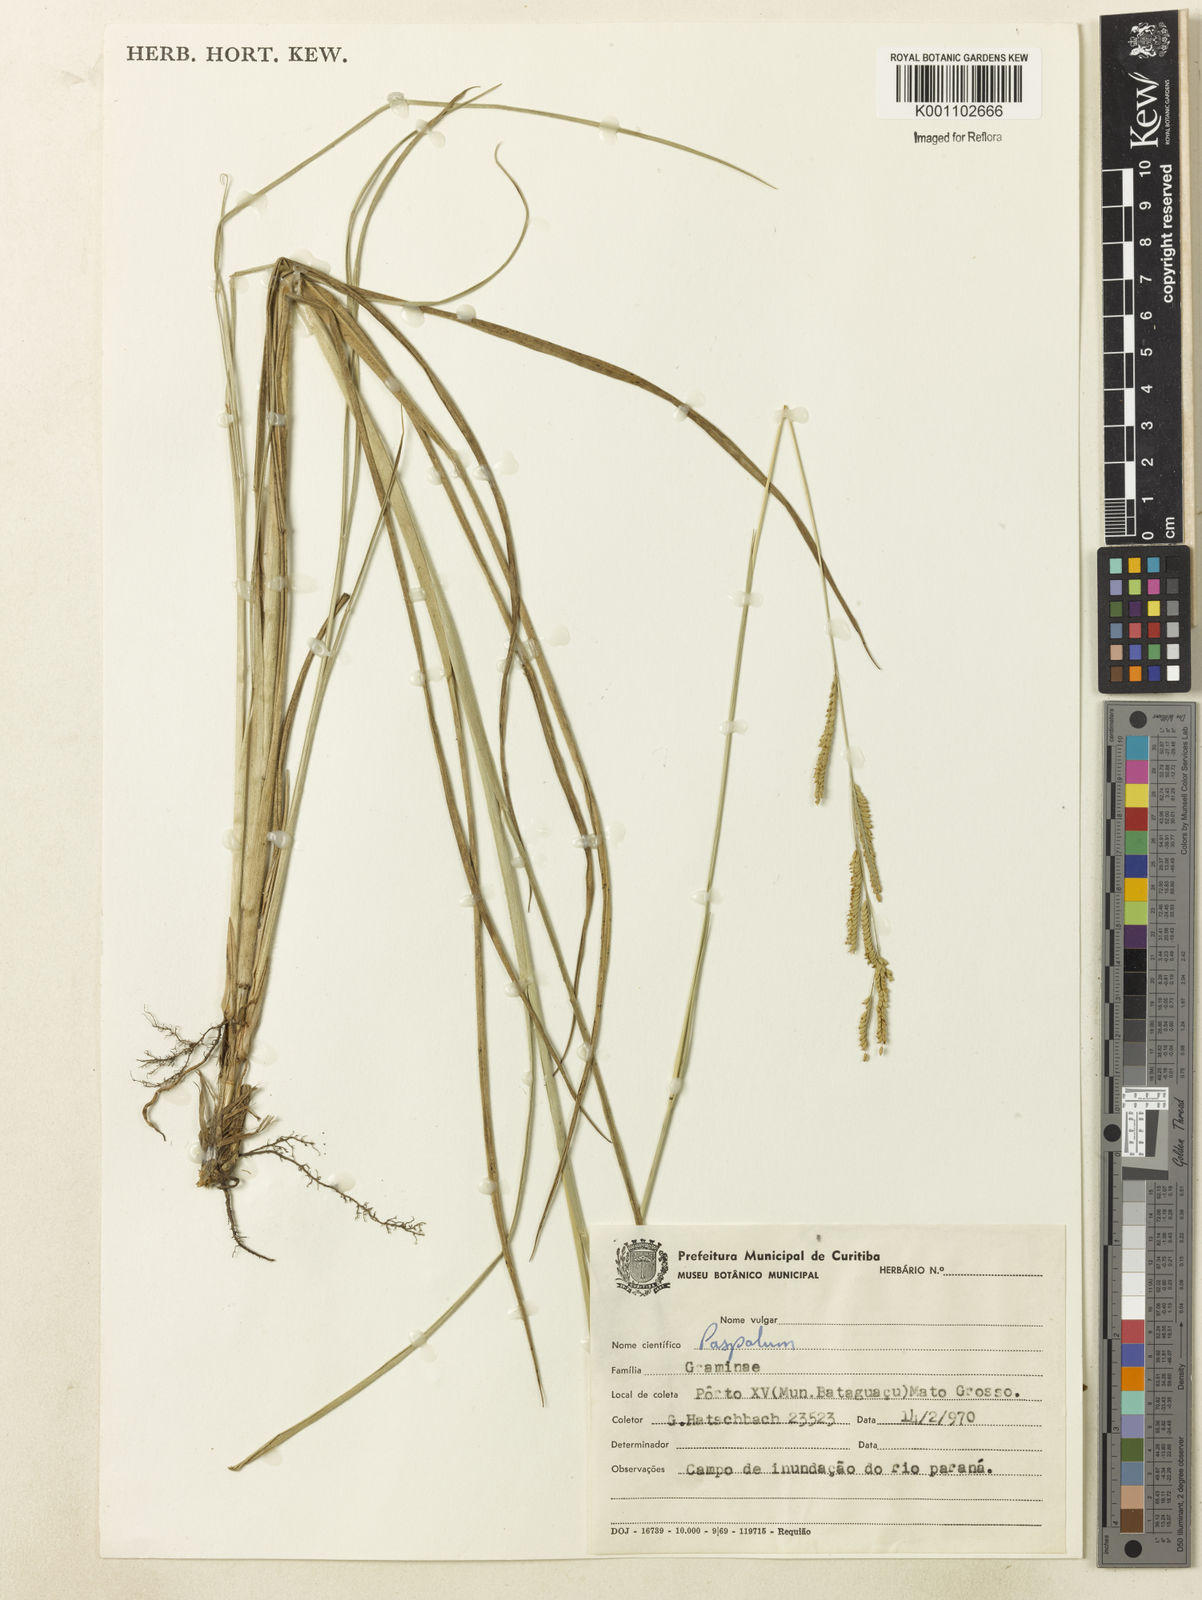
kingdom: Plantae
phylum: Tracheophyta
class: Liliopsida
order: Poales
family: Poaceae
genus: Paspalum
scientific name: Paspalum
